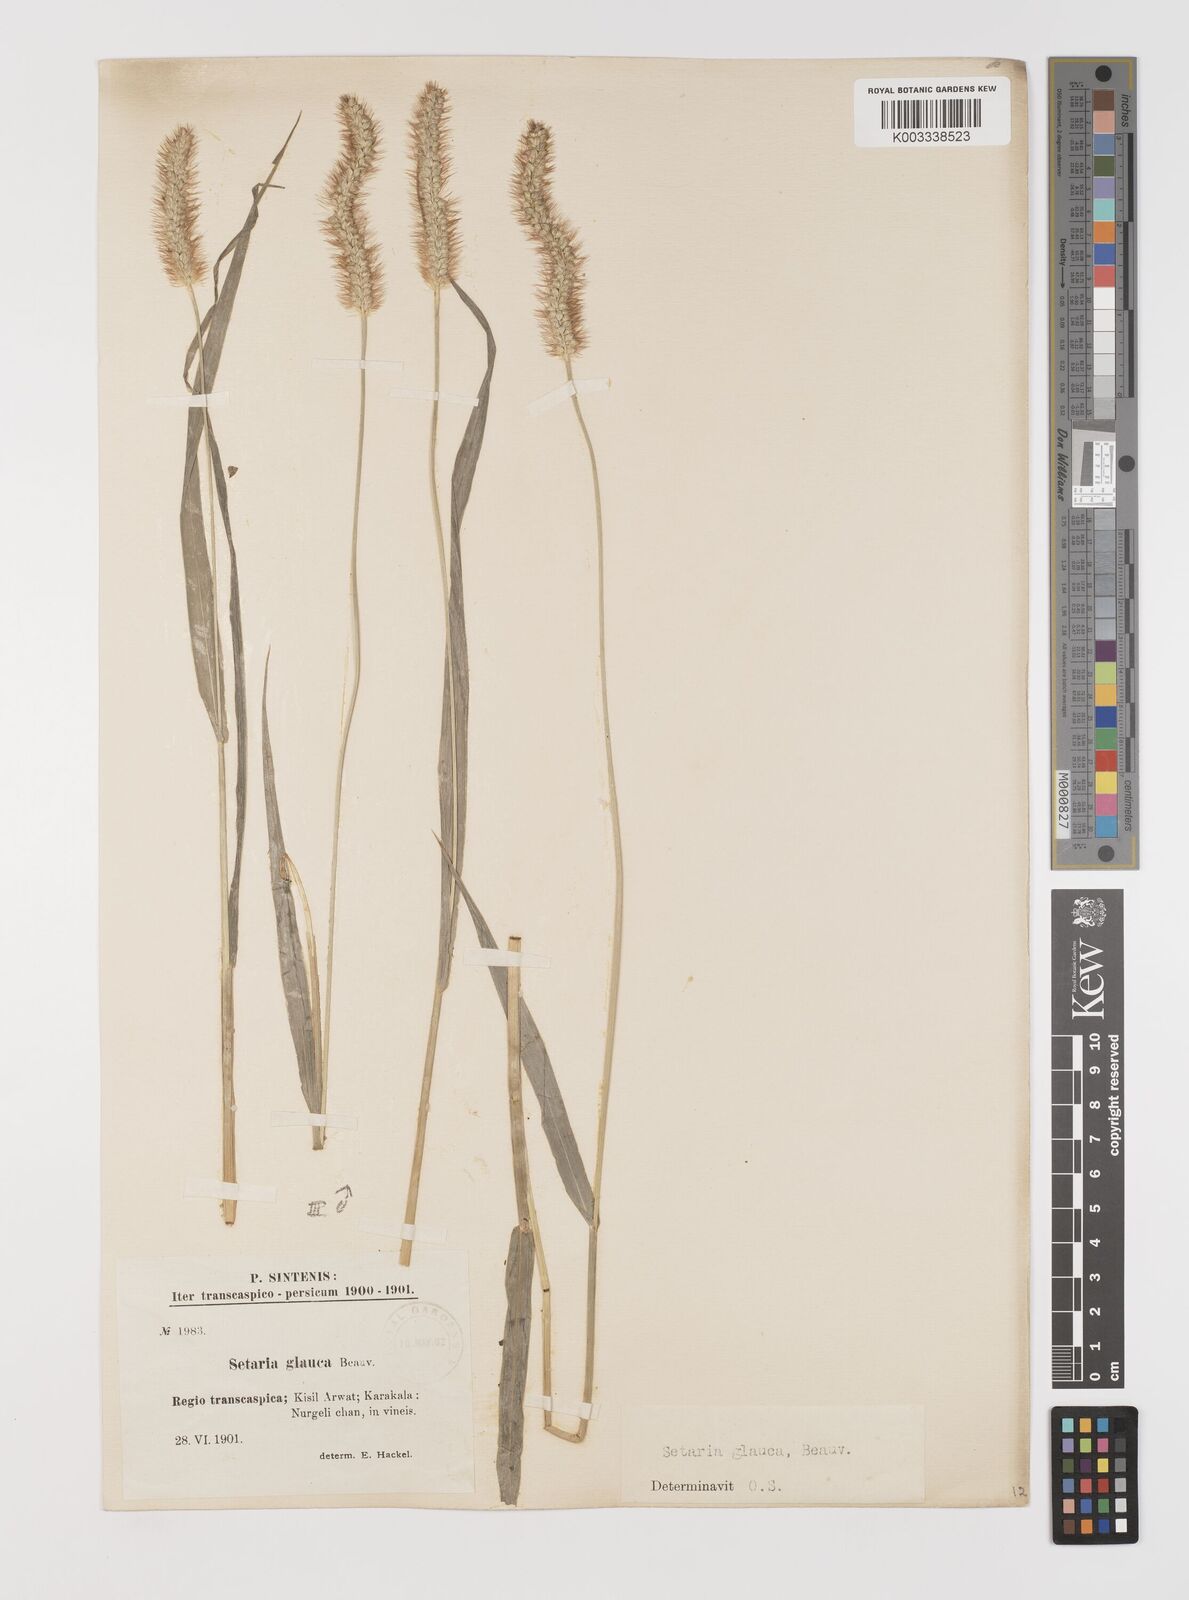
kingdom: Plantae
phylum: Tracheophyta
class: Liliopsida
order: Poales
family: Poaceae
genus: Cenchrus
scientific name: Cenchrus americanus
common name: Pearl millet
